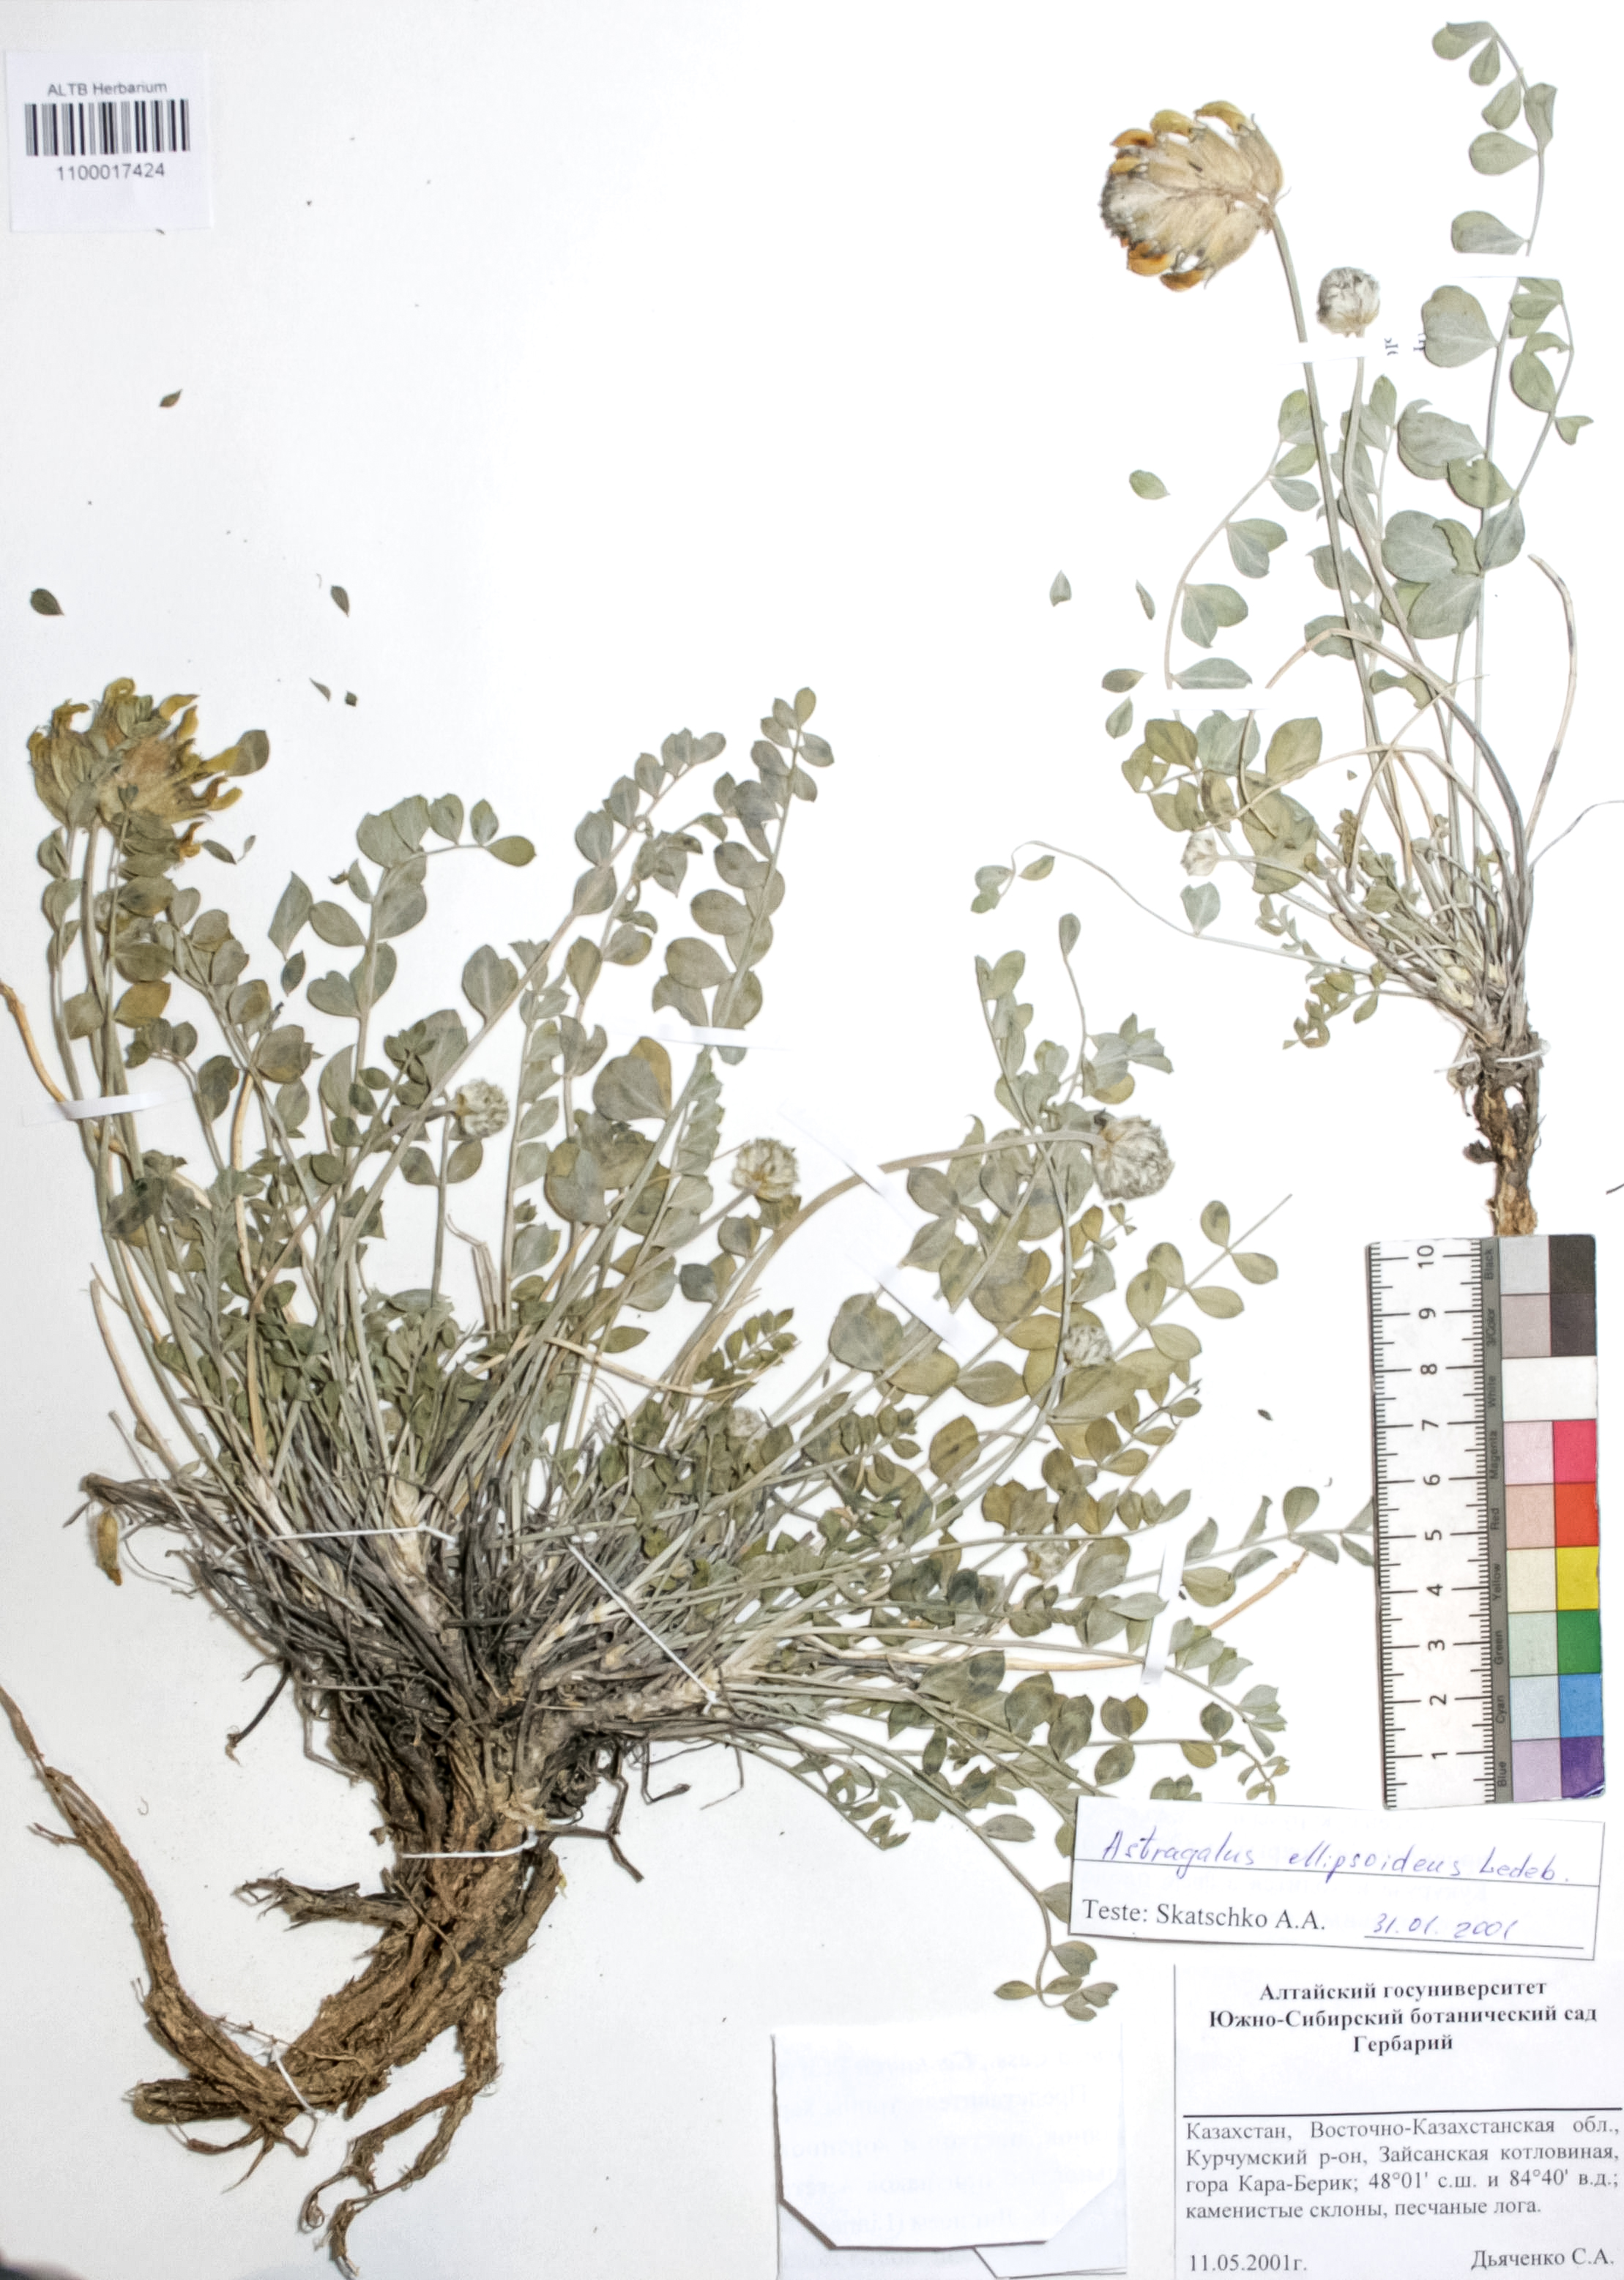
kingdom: Plantae
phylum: Tracheophyta
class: Magnoliopsida
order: Fabales
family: Fabaceae
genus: Astragalus
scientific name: Astragalus ellipsoideus
